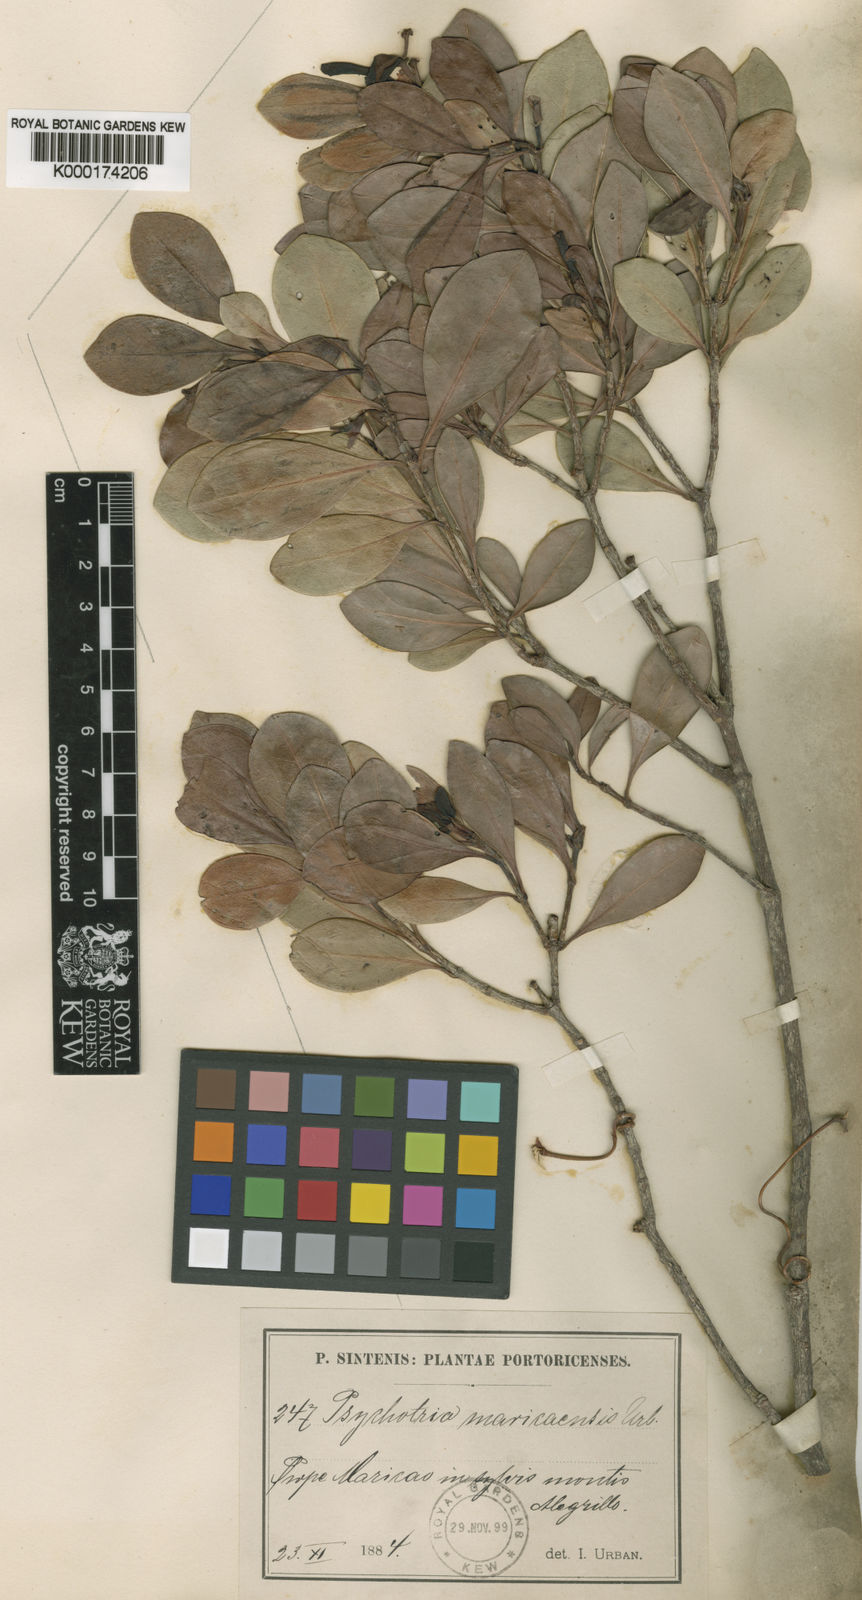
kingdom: Plantae
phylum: Tracheophyta
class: Magnoliopsida
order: Gentianales
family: Rubiaceae
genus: Psychotria
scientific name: Psychotria maricaensis
